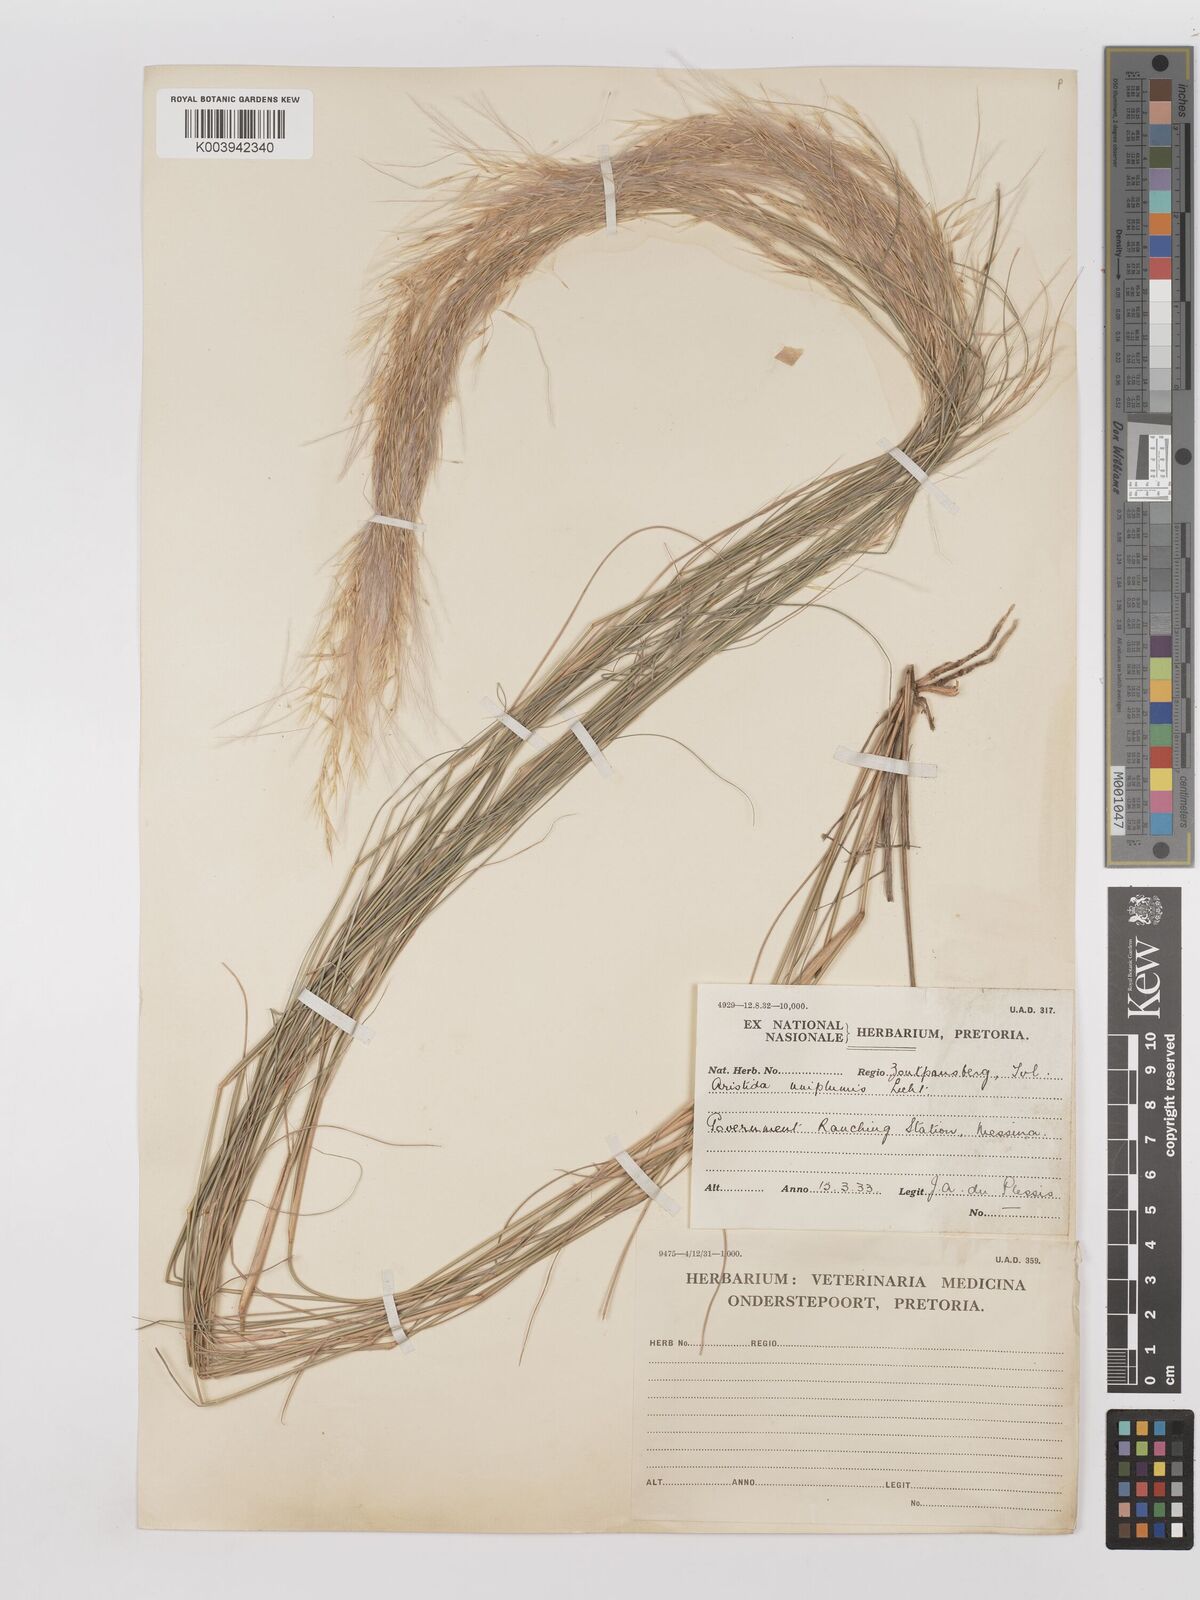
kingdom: Plantae
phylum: Tracheophyta
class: Liliopsida
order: Poales
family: Poaceae
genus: Stipagrostis
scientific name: Stipagrostis uniplumis
